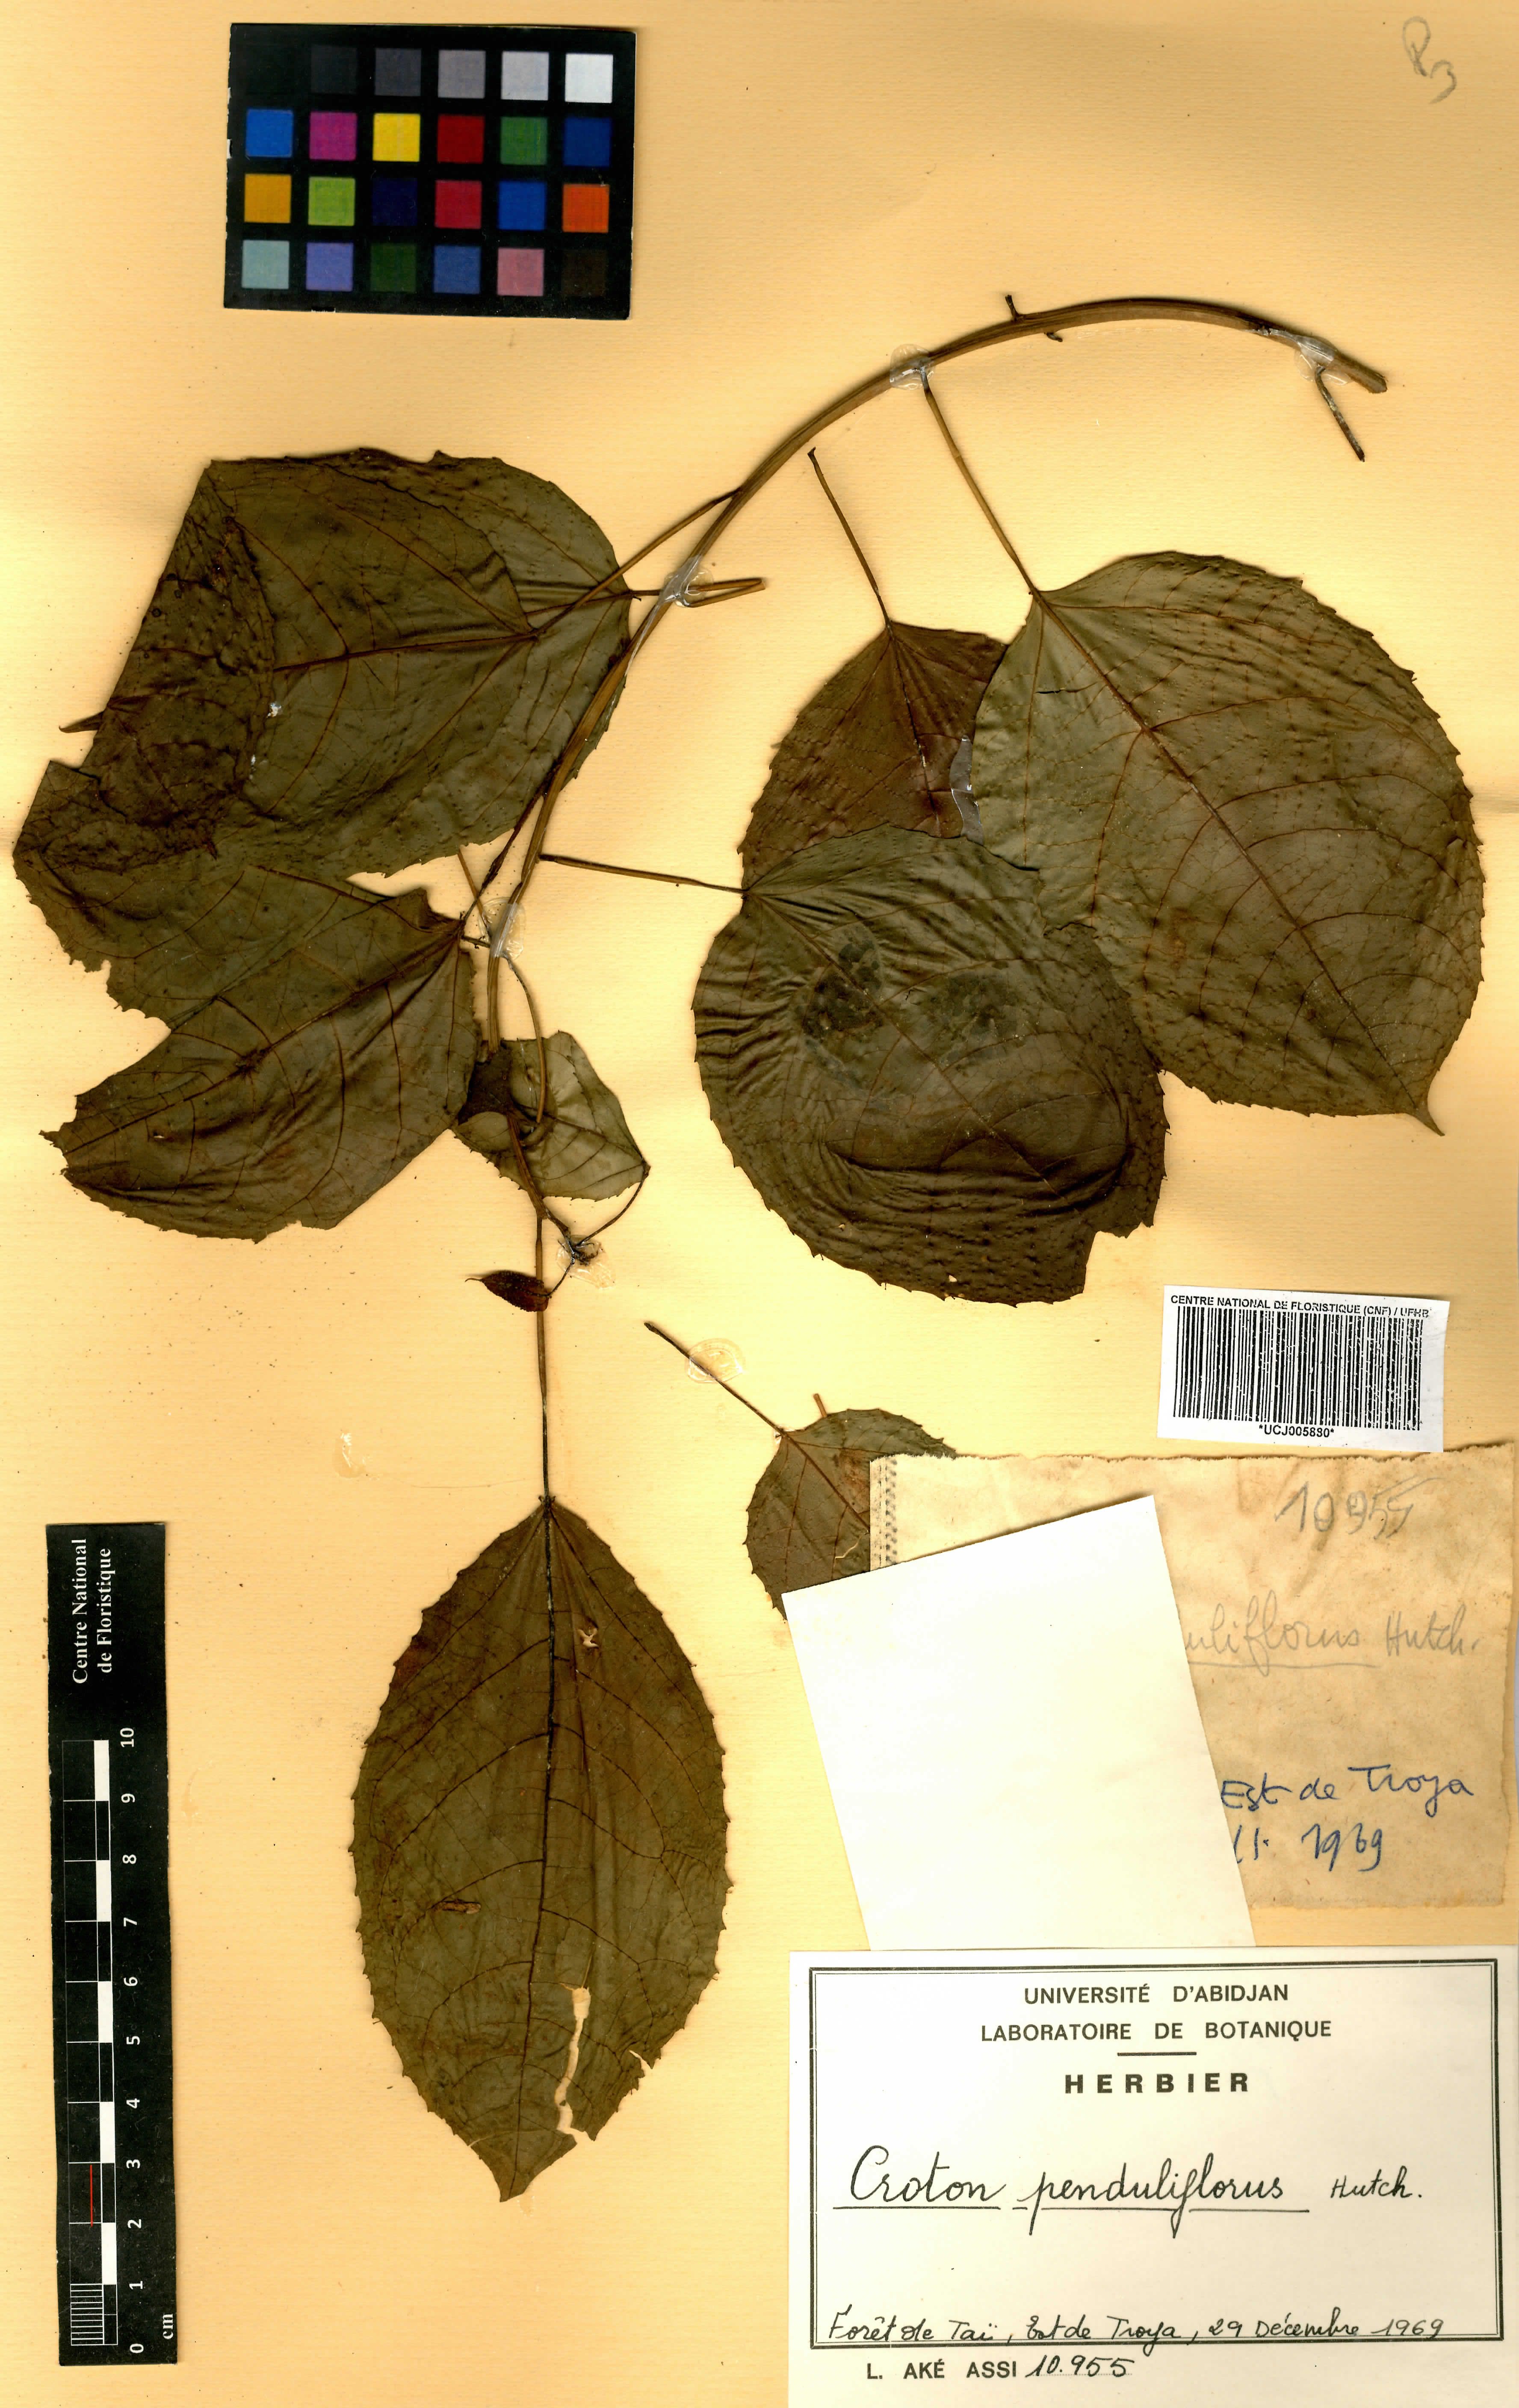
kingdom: Plantae
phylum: Tracheophyta
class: Magnoliopsida
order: Malpighiales
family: Euphorbiaceae
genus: Croton
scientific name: Croton penduliflorus
